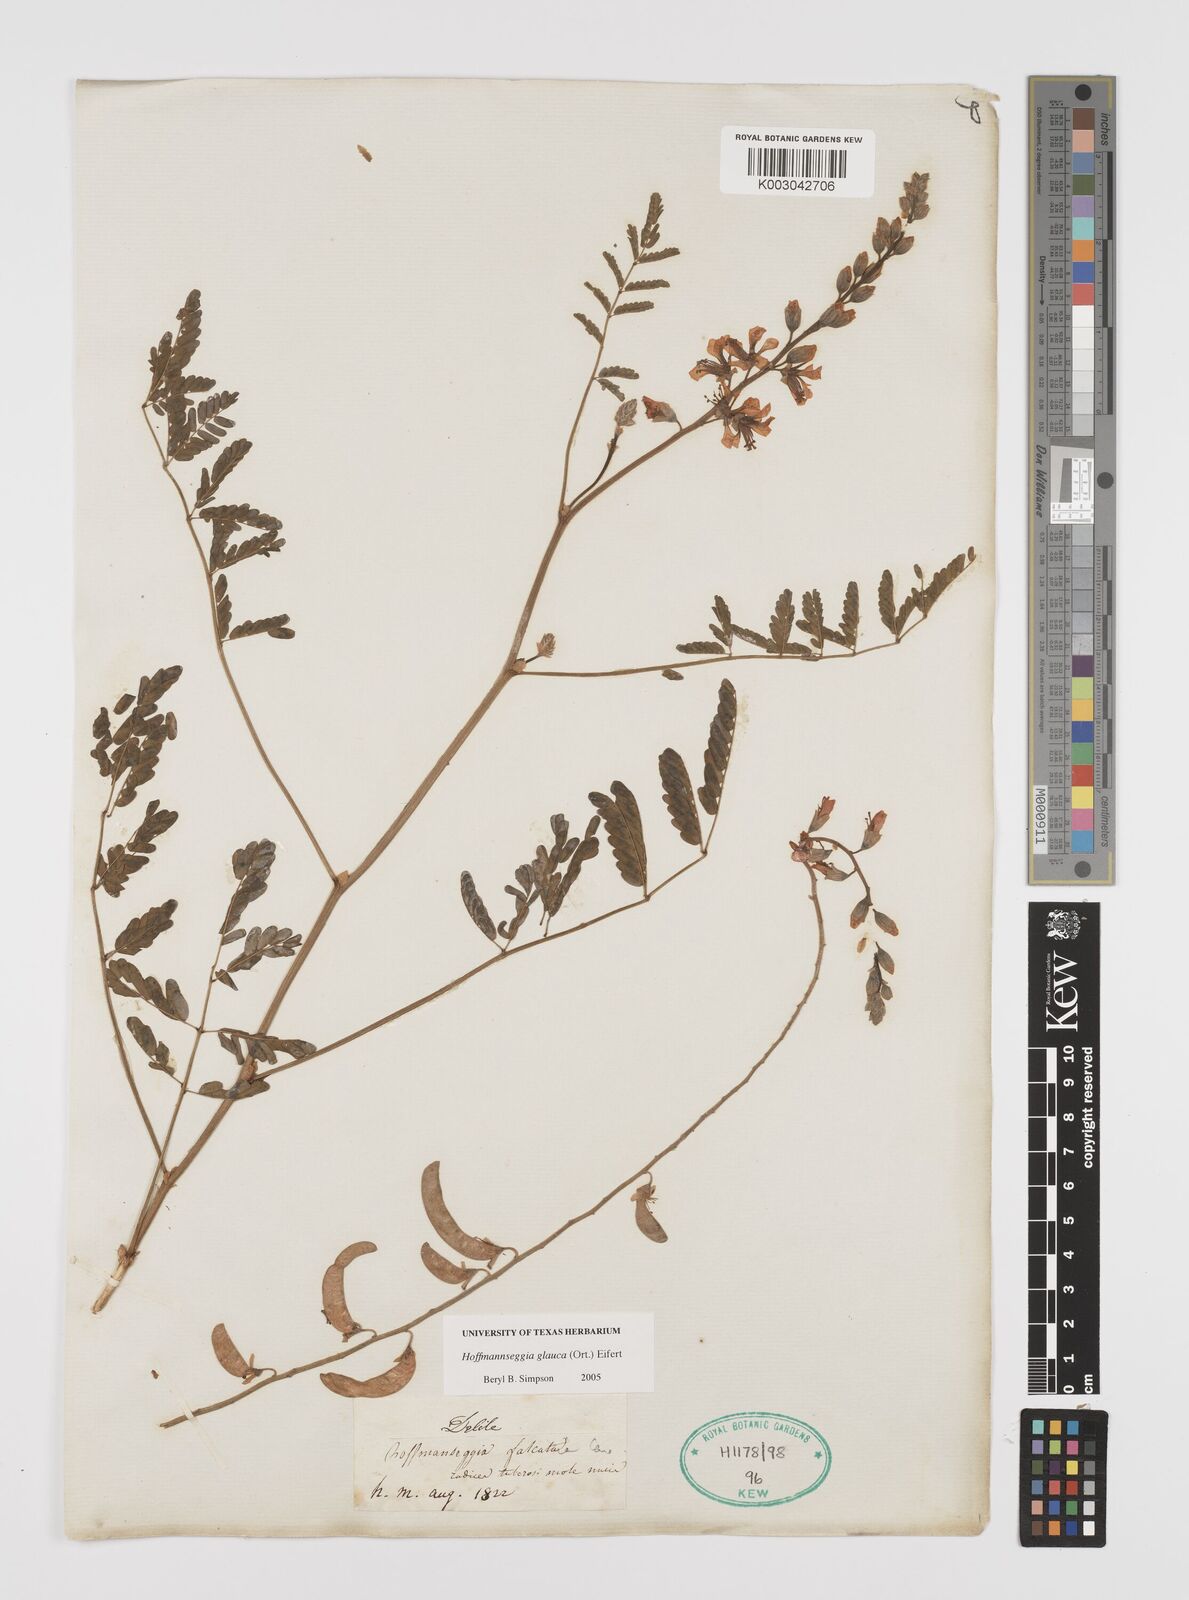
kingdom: Plantae
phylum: Tracheophyta
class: Magnoliopsida
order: Fabales
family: Fabaceae
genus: Hoffmannseggia
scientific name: Hoffmannseggia glauca
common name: Pignut
